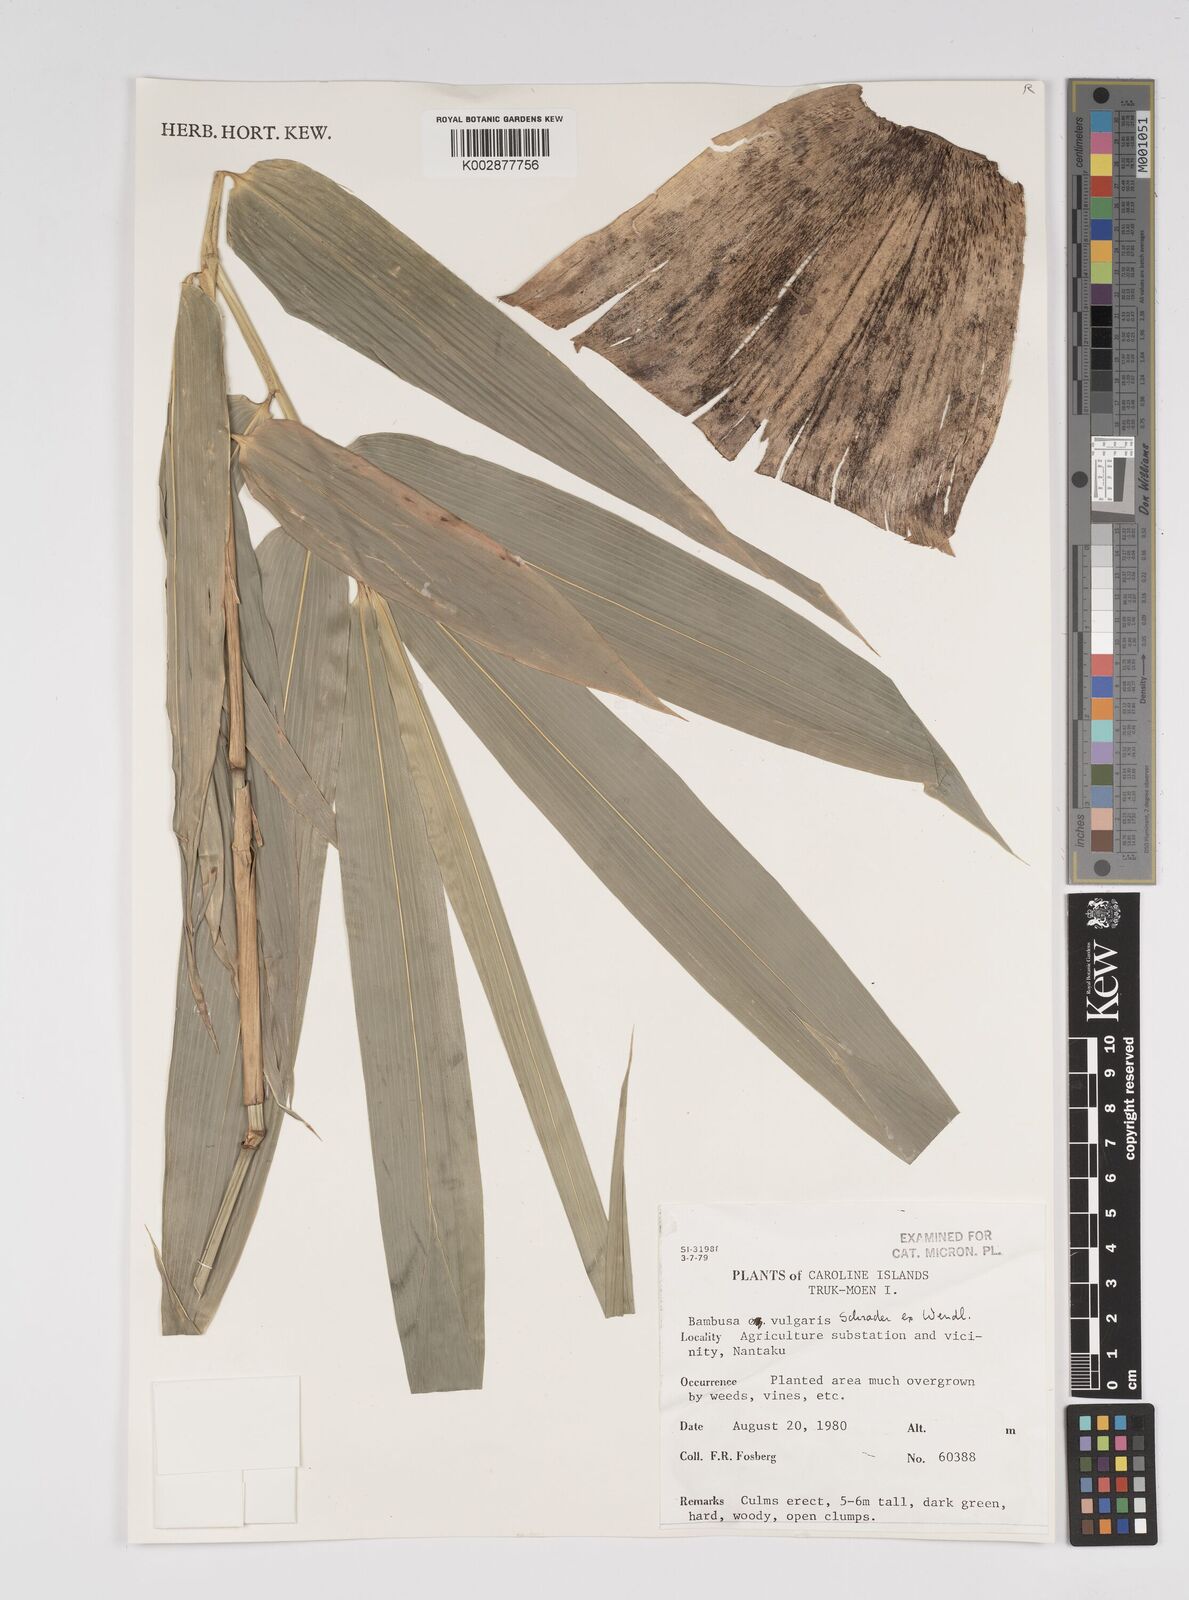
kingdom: Plantae
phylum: Tracheophyta
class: Liliopsida
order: Poales
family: Poaceae
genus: Bambusa
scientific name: Bambusa
